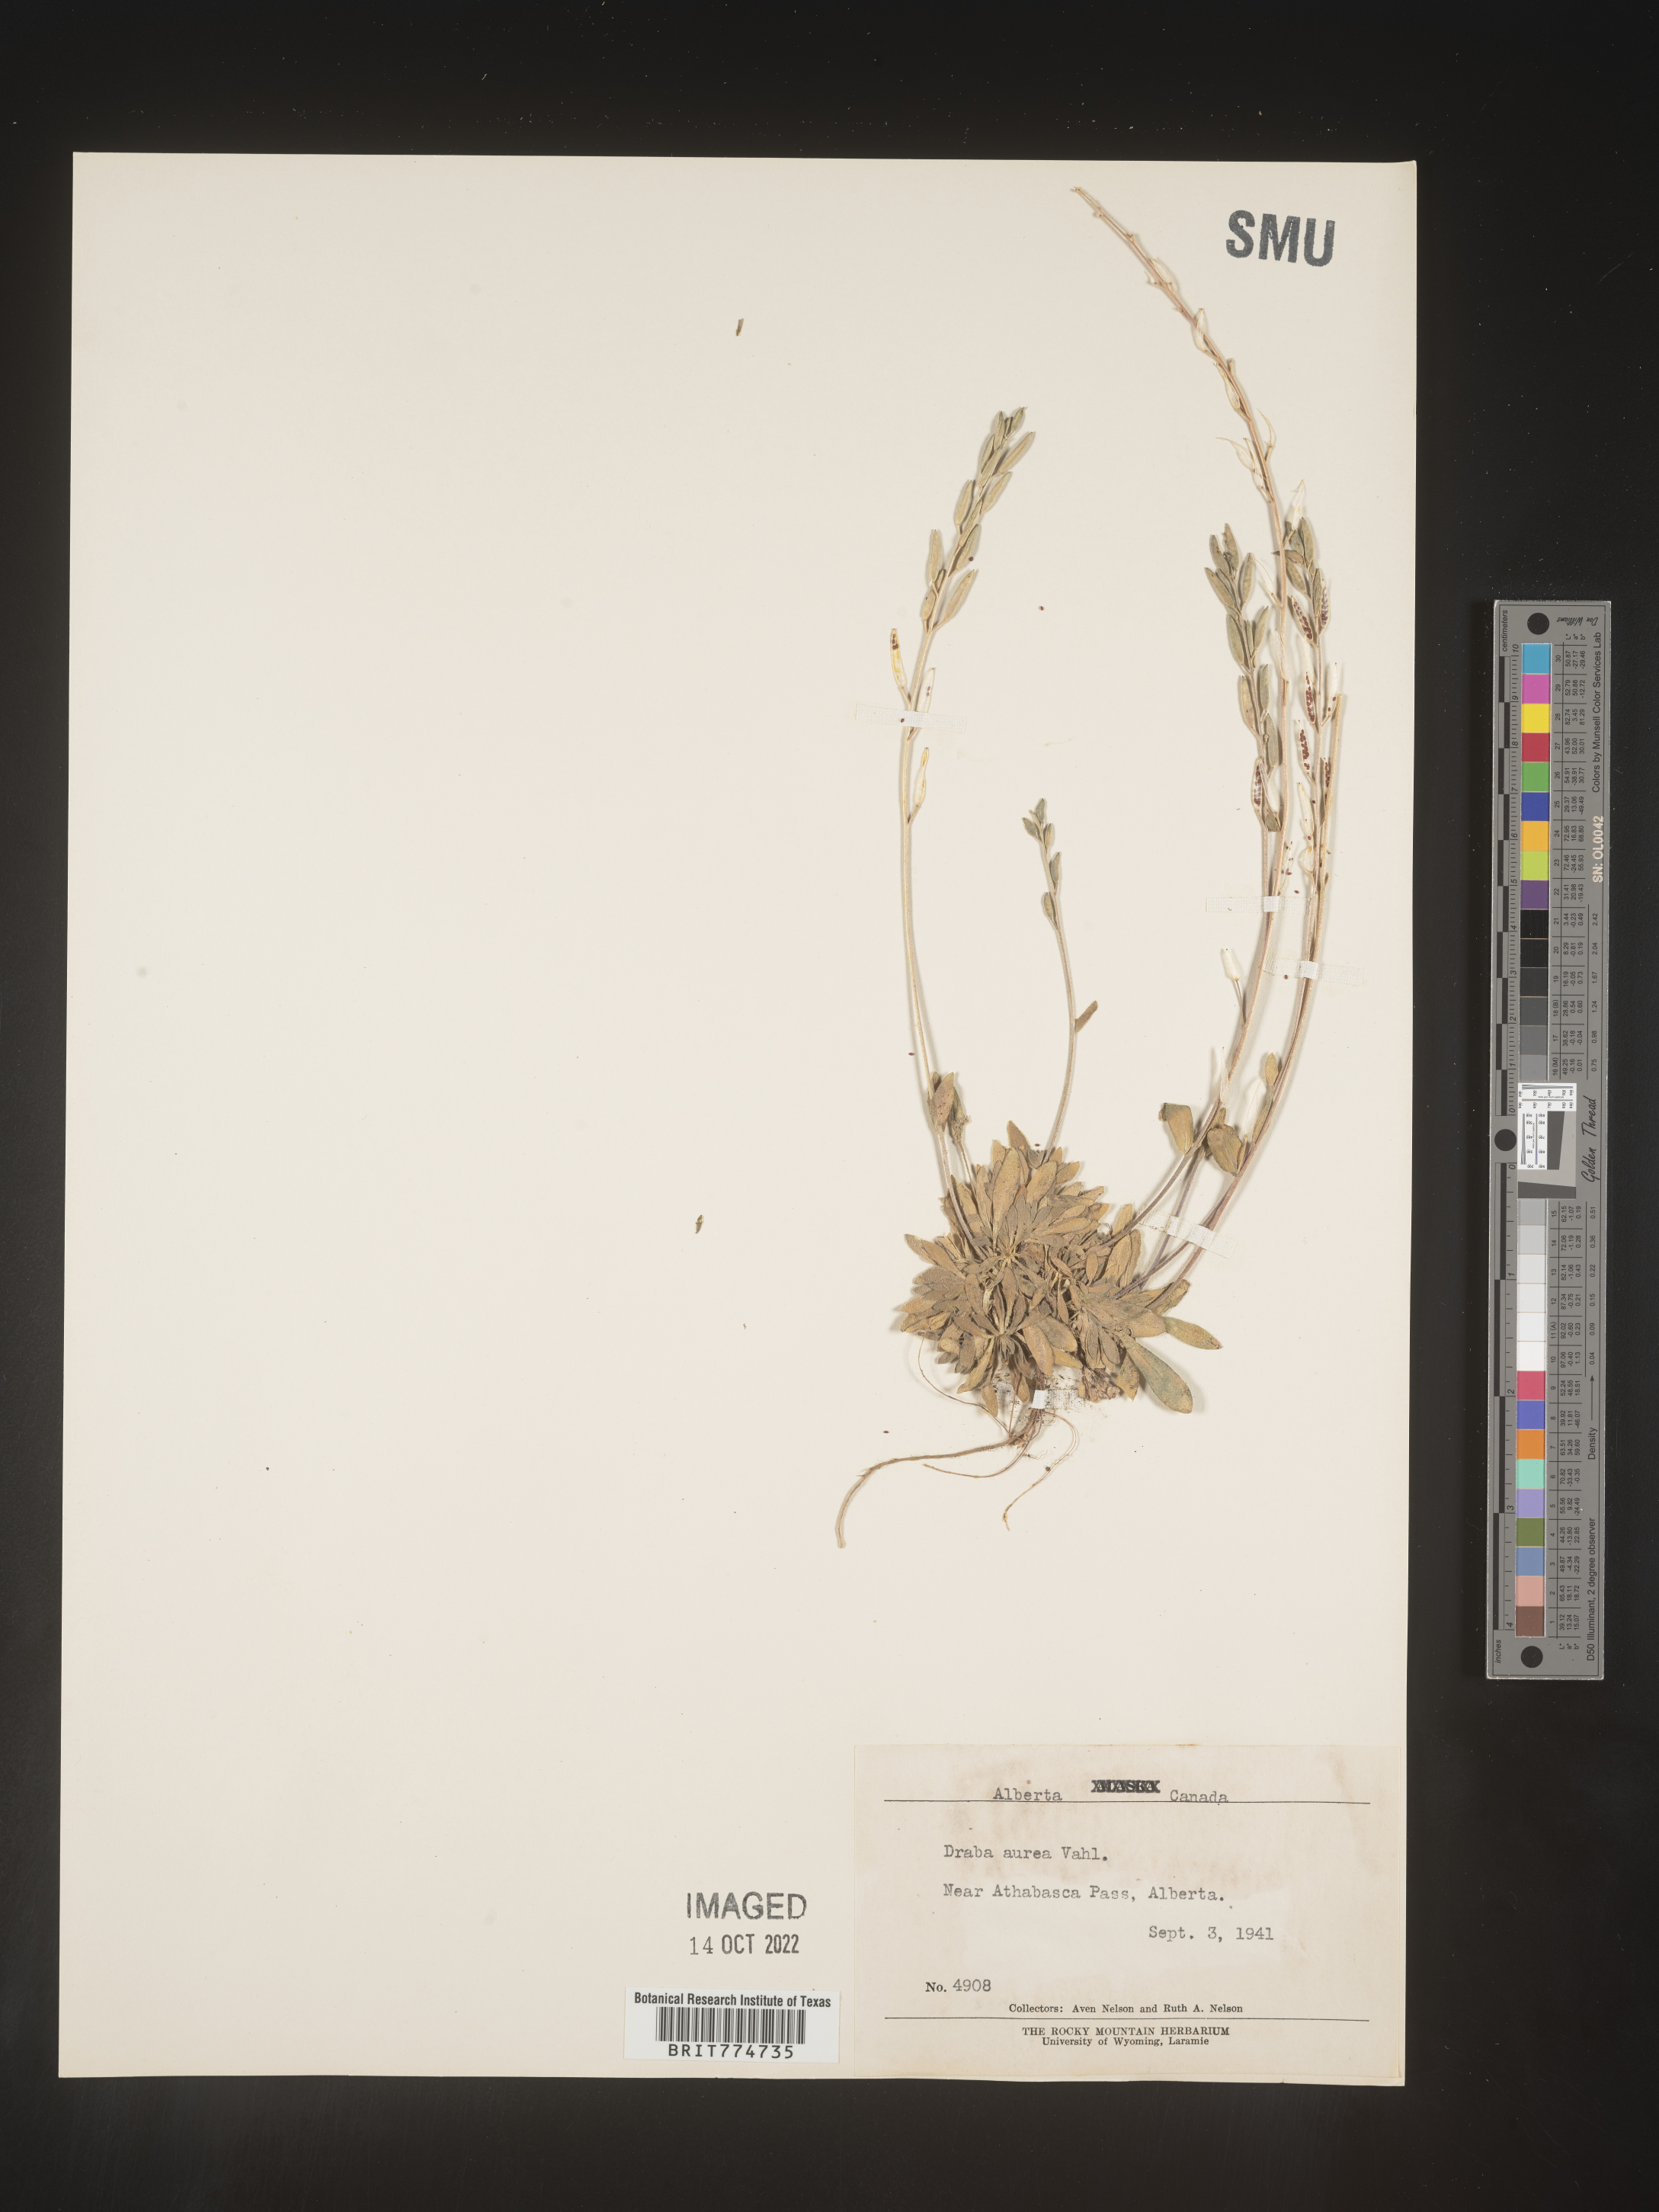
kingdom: Plantae
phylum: Tracheophyta
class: Magnoliopsida
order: Brassicales
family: Brassicaceae
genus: Draba
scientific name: Draba
